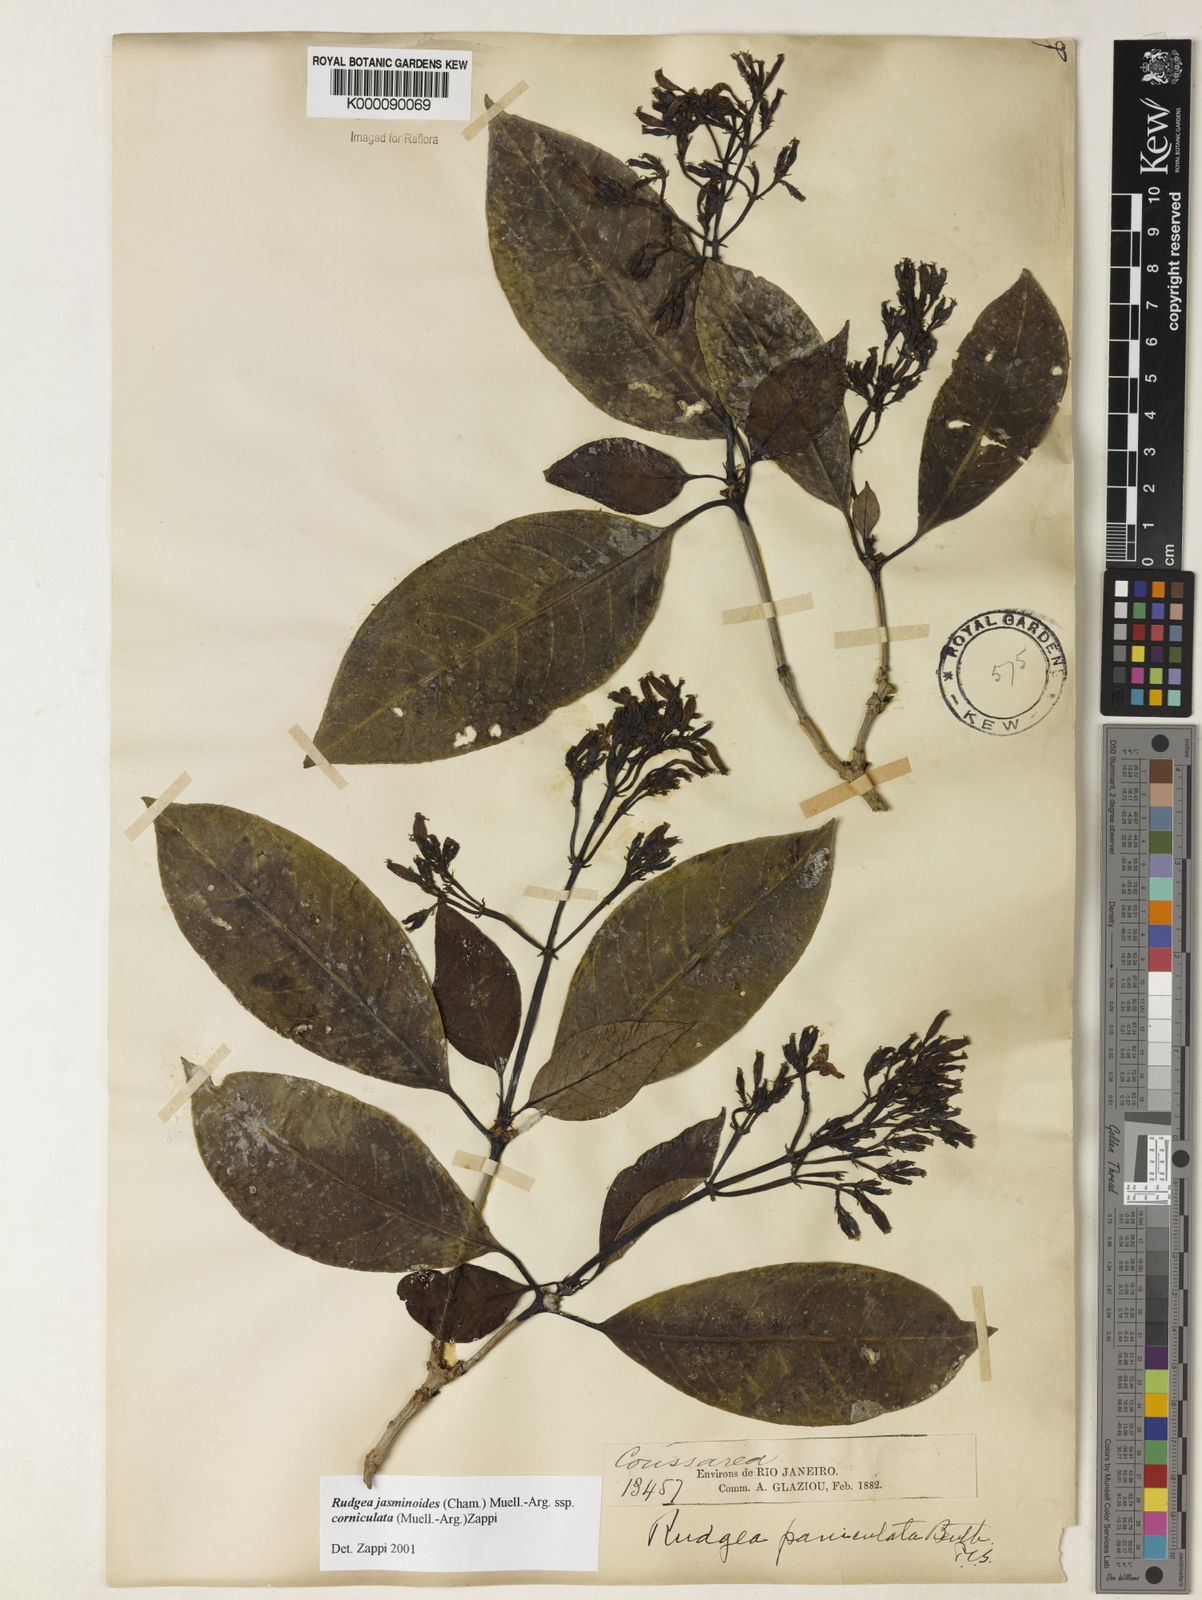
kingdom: Plantae
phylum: Tracheophyta
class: Magnoliopsida
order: Gentianales
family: Rubiaceae
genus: Rudgea
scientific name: Rudgea jasminoides
